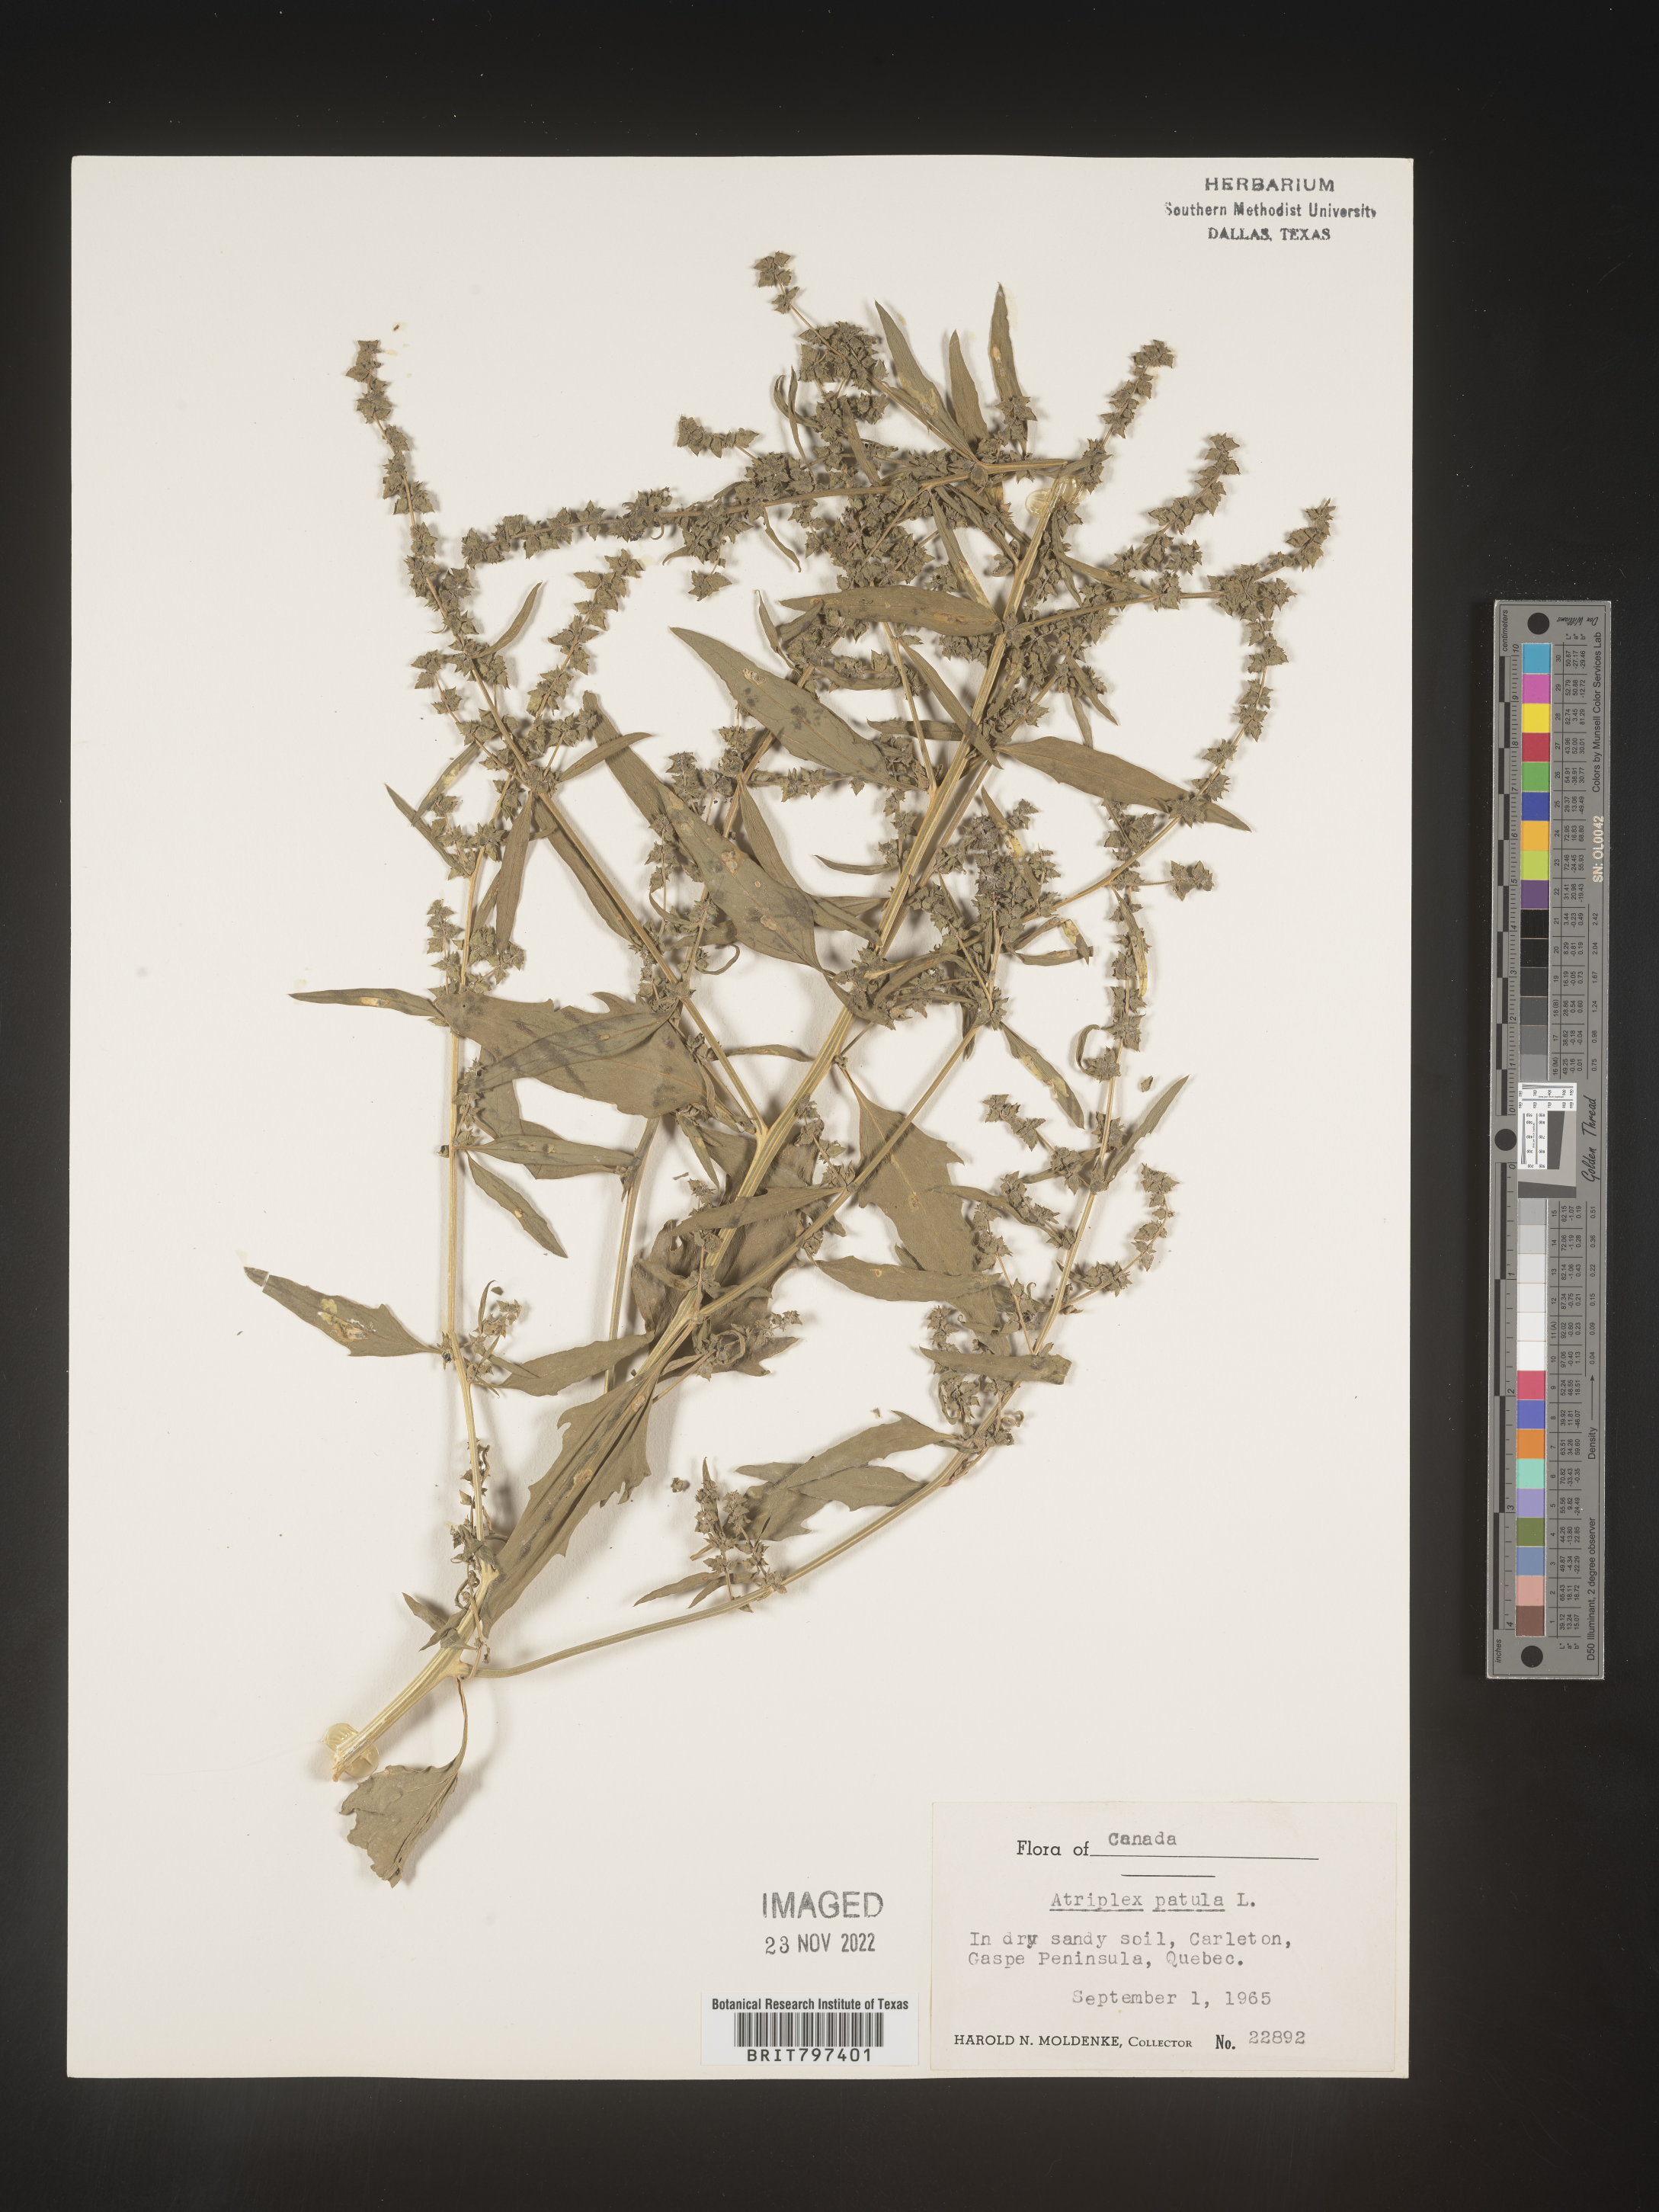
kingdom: Plantae
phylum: Tracheophyta
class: Magnoliopsida
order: Caryophyllales
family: Amaranthaceae
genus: Atriplex
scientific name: Atriplex prostrata
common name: Spear-leaved orache
